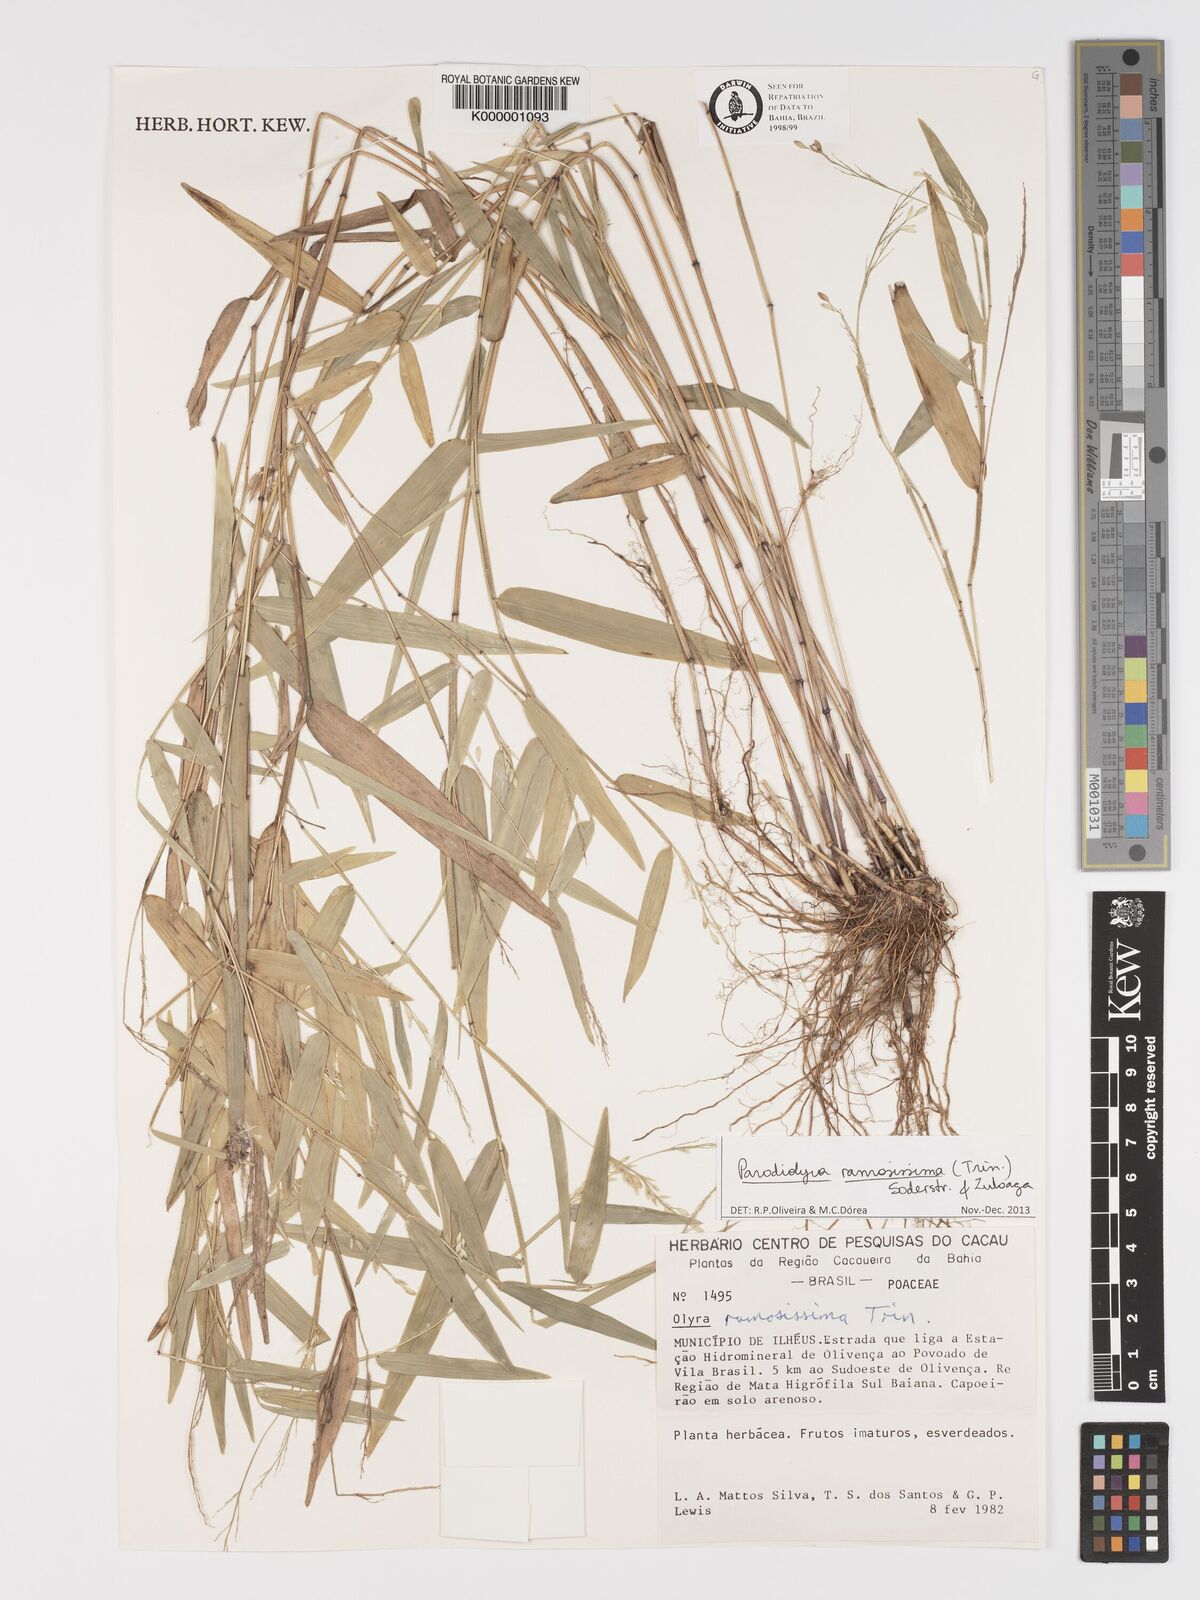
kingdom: Plantae
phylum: Tracheophyta
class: Liliopsida
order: Poales
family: Poaceae
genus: Parodiolyra
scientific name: Parodiolyra ramosissima
